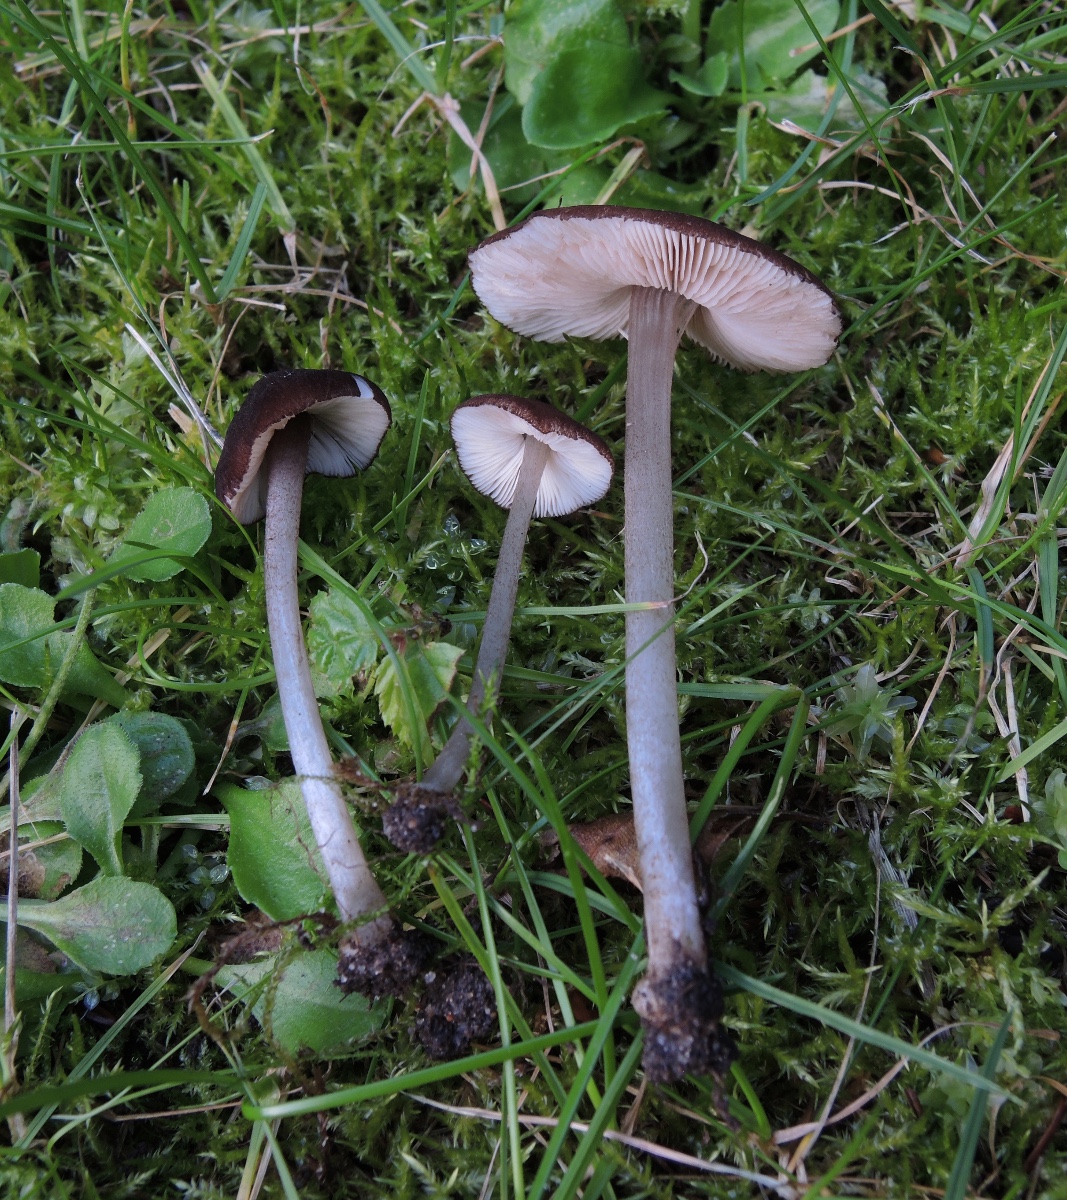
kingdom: Fungi
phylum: Basidiomycota
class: Agaricomycetes
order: Agaricales
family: Pluteaceae
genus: Pluteus
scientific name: Pluteus podospileus
